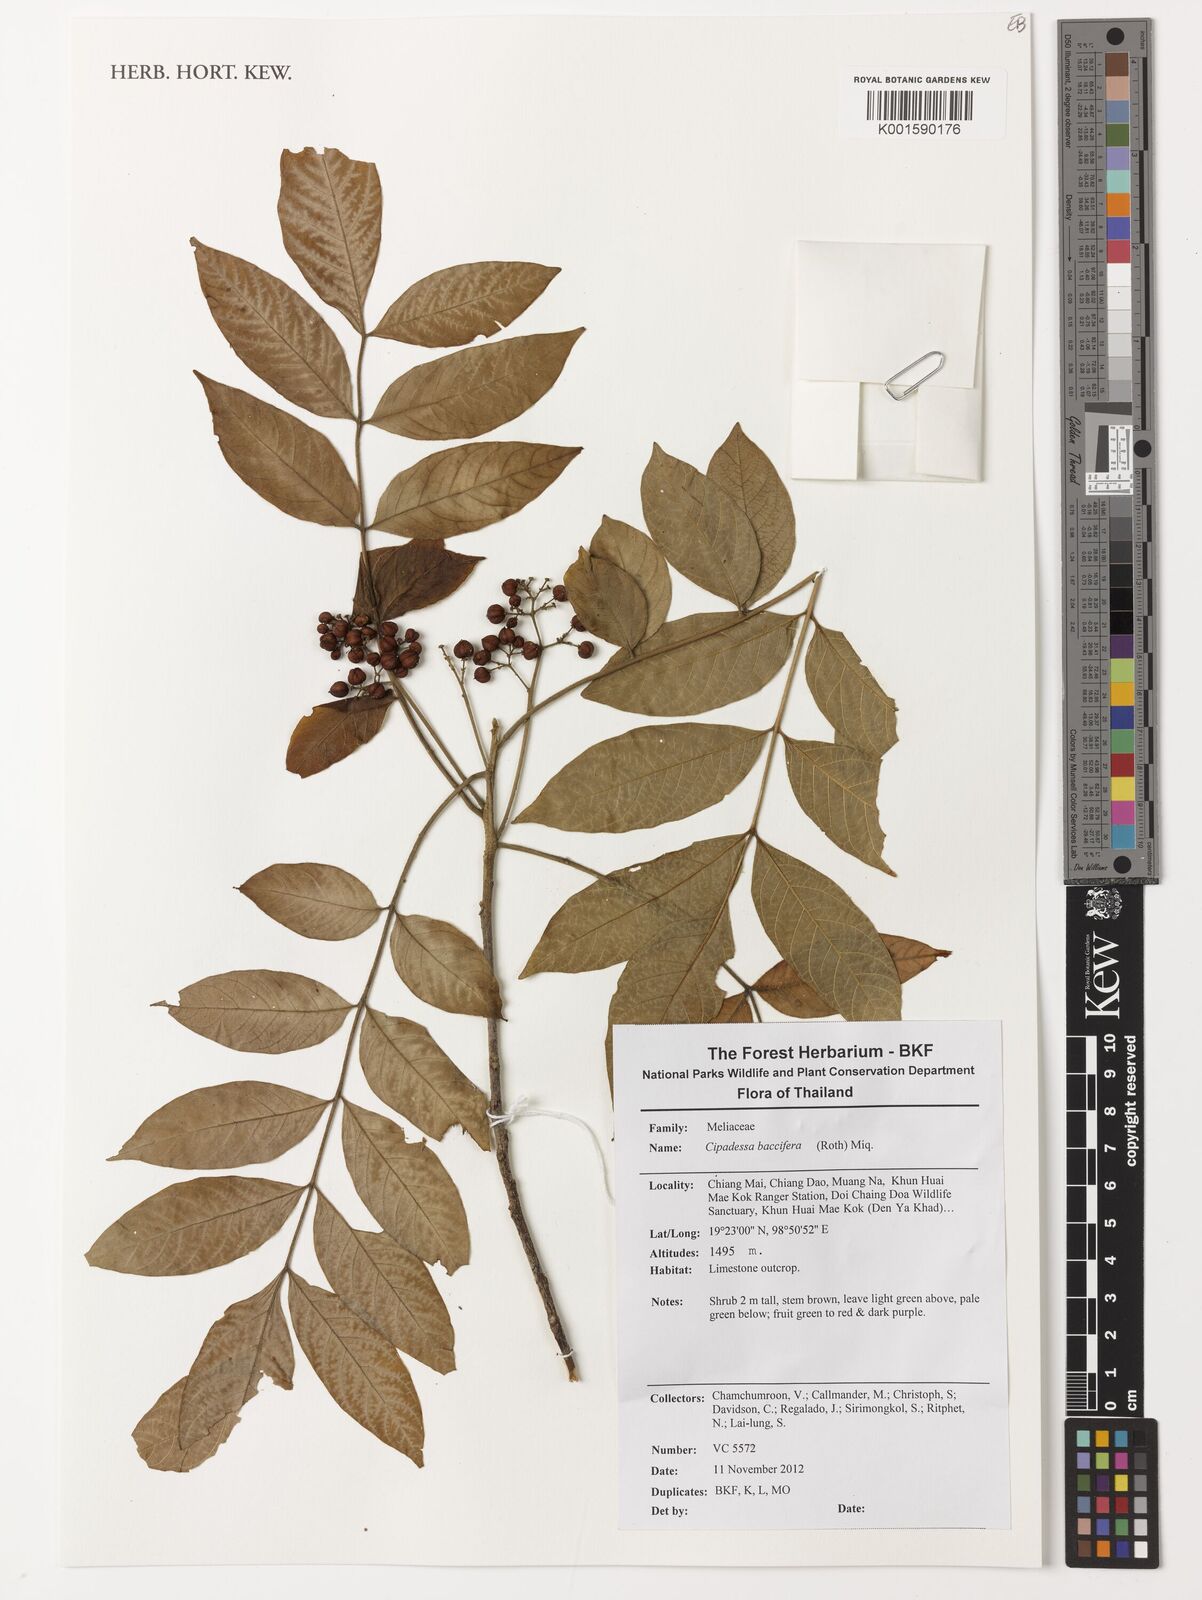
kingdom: Plantae
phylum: Tracheophyta
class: Magnoliopsida
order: Sapindales
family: Meliaceae
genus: Cipadessa
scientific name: Cipadessa baccifera
